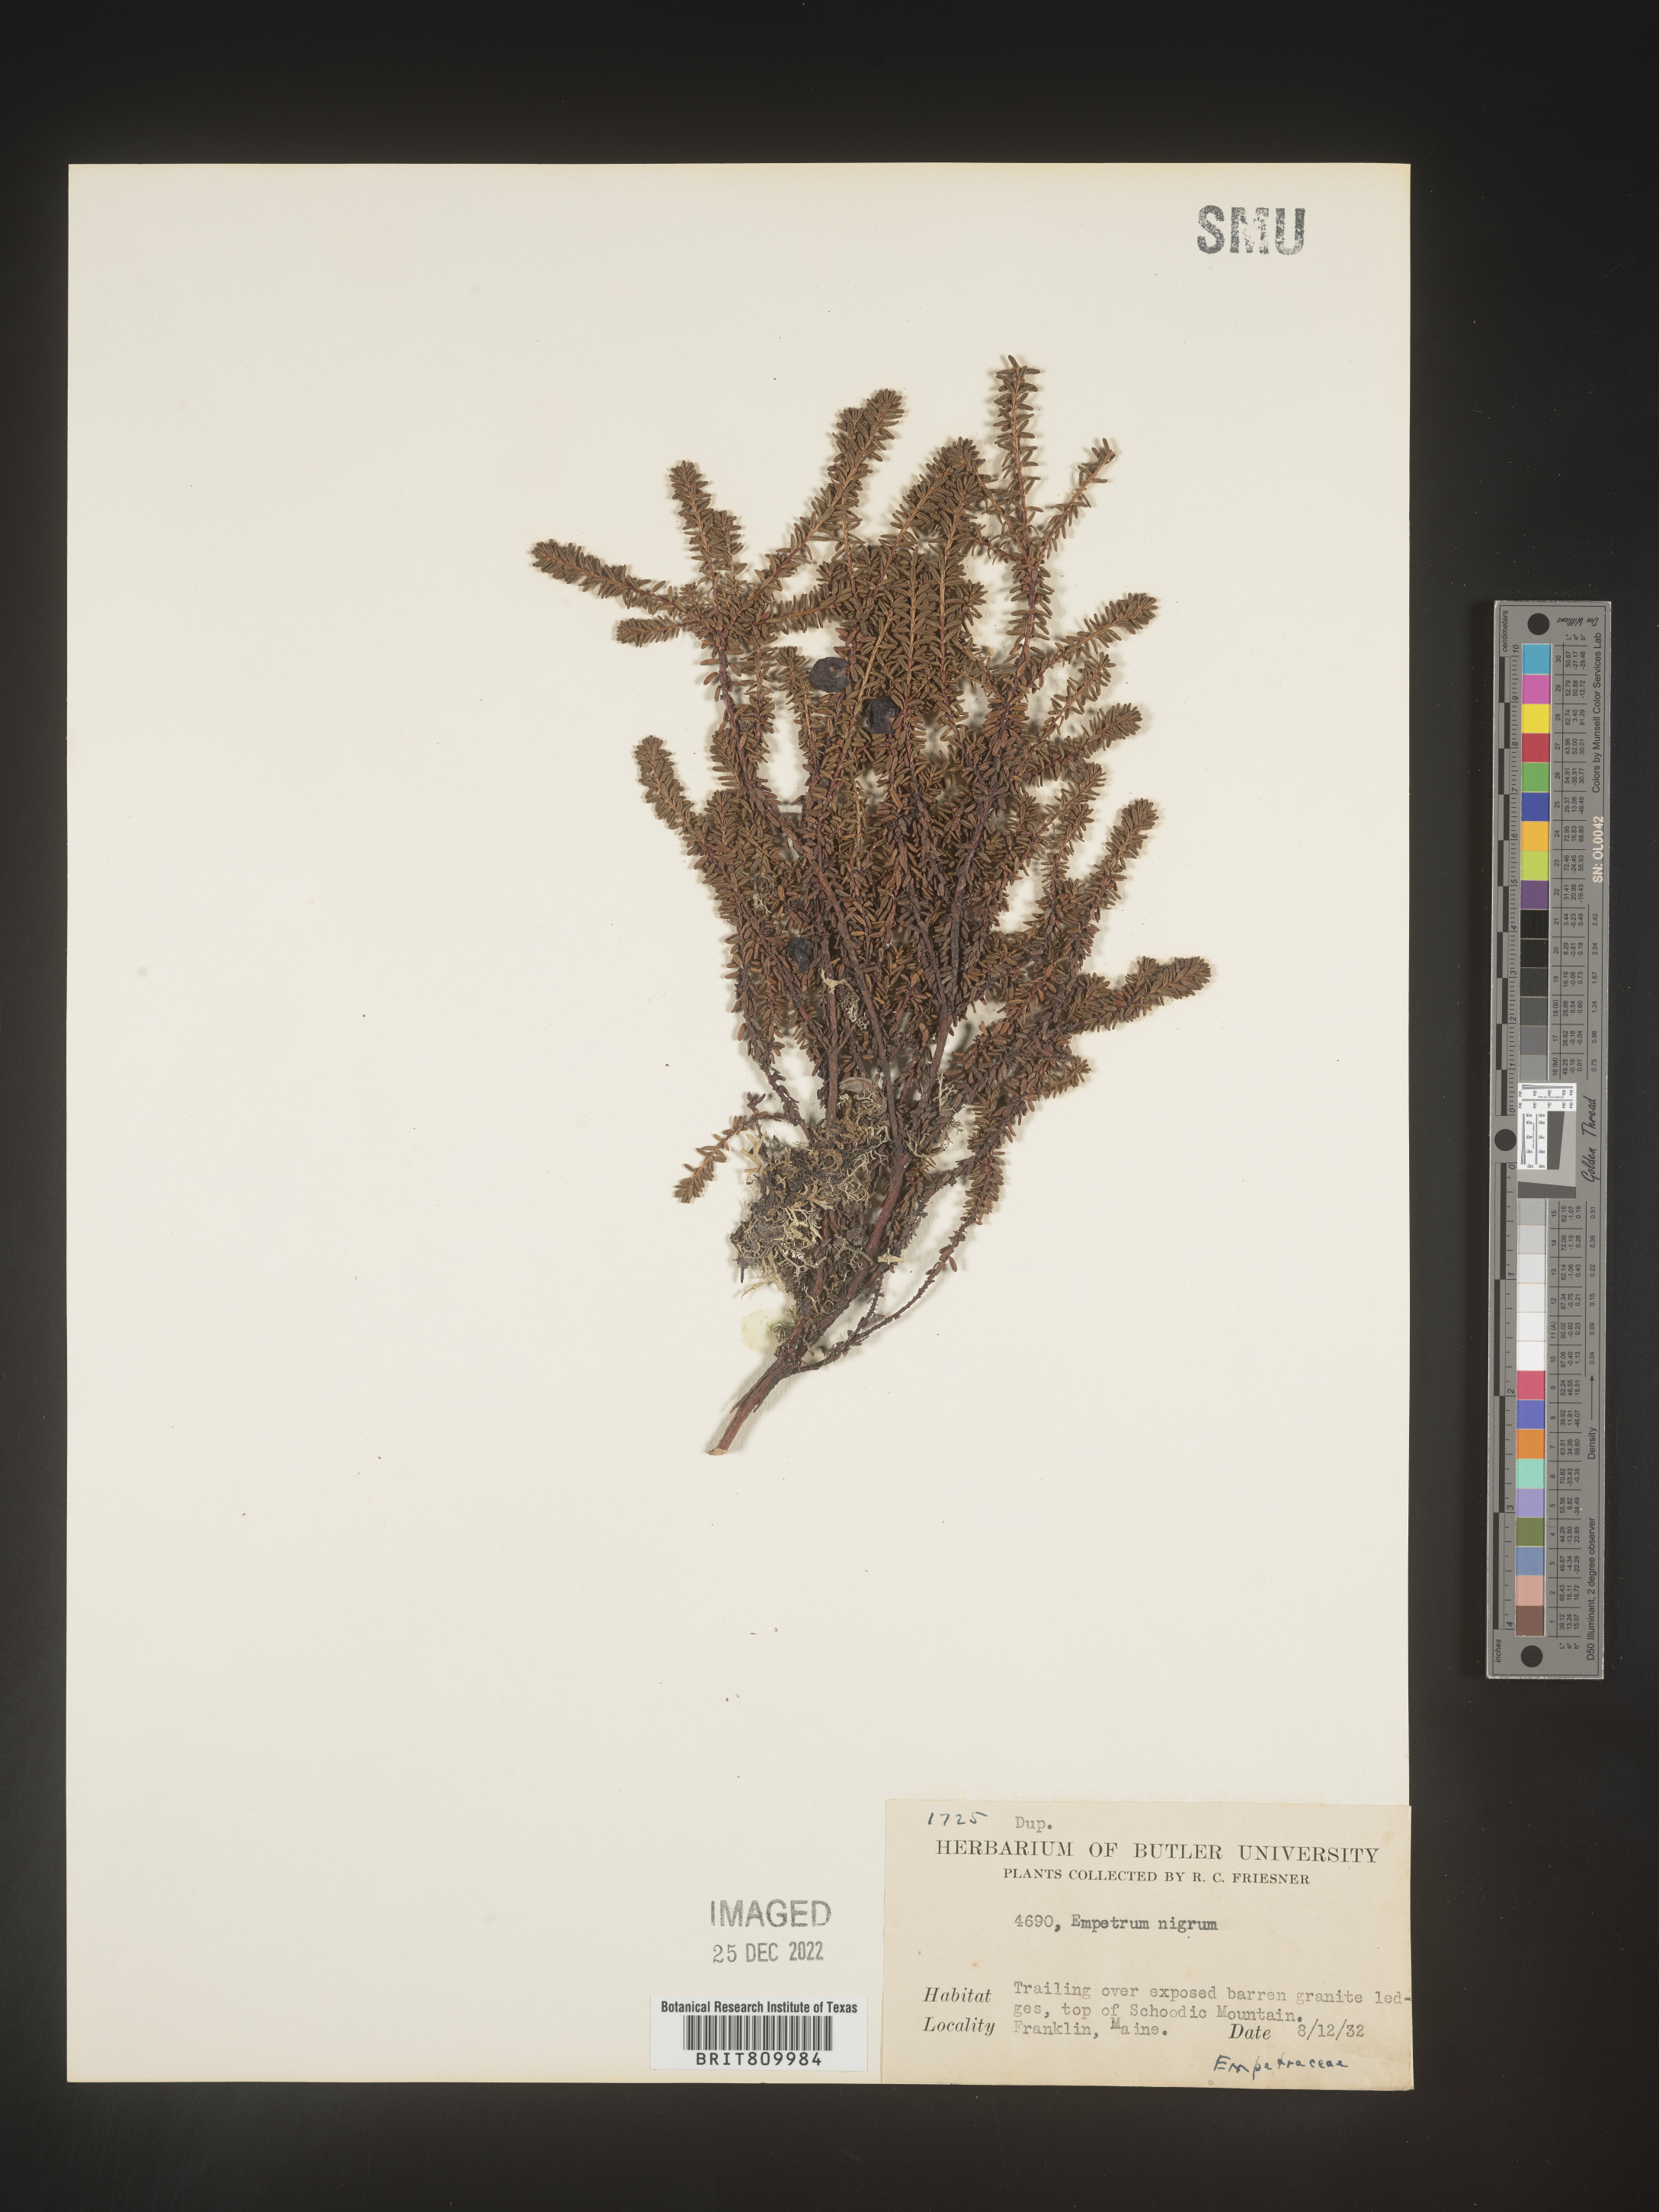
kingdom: Plantae
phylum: Tracheophyta
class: Magnoliopsida
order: Ericales
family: Ericaceae
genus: Empetrum
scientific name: Empetrum
